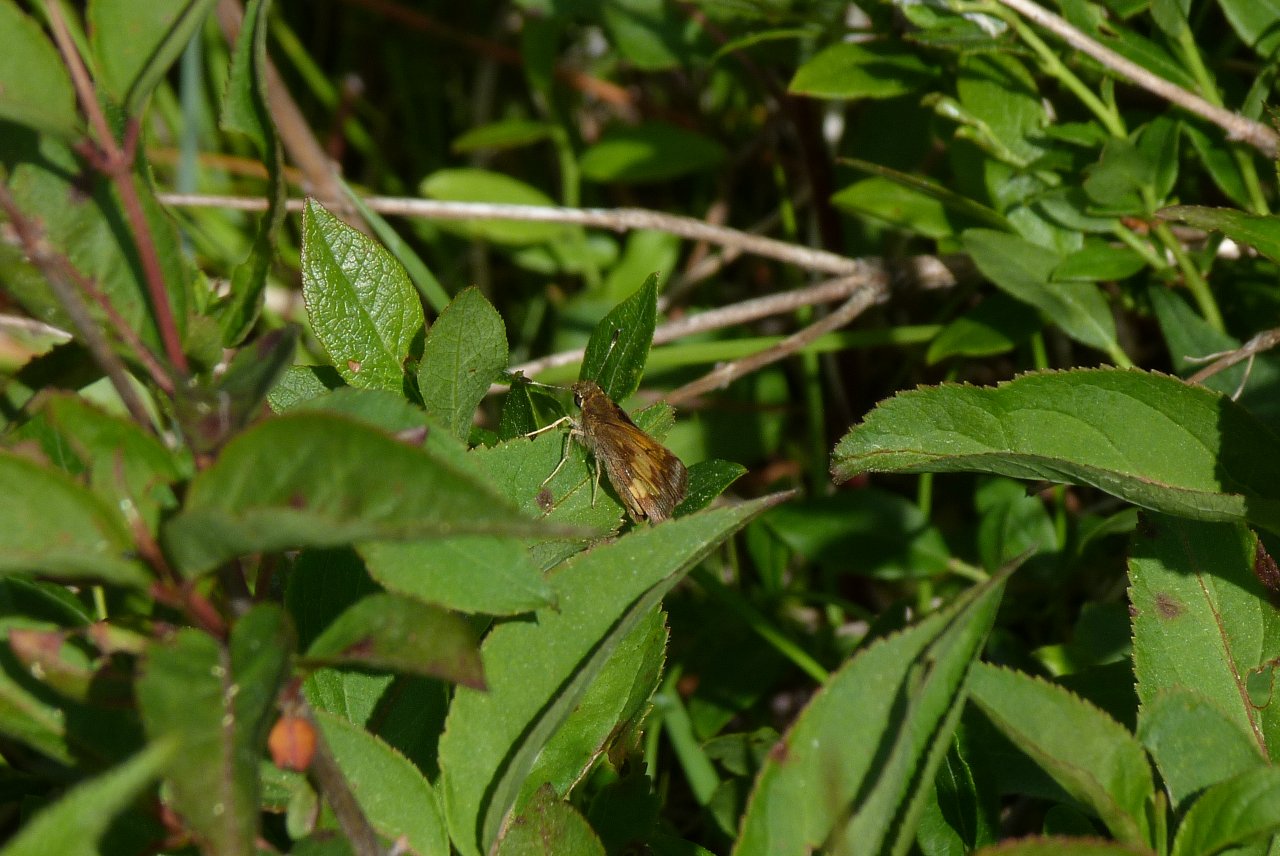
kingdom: Animalia
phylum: Arthropoda
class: Insecta
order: Lepidoptera
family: Hesperiidae
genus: Lon
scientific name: Lon hobomok
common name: Hobomok Skipper
